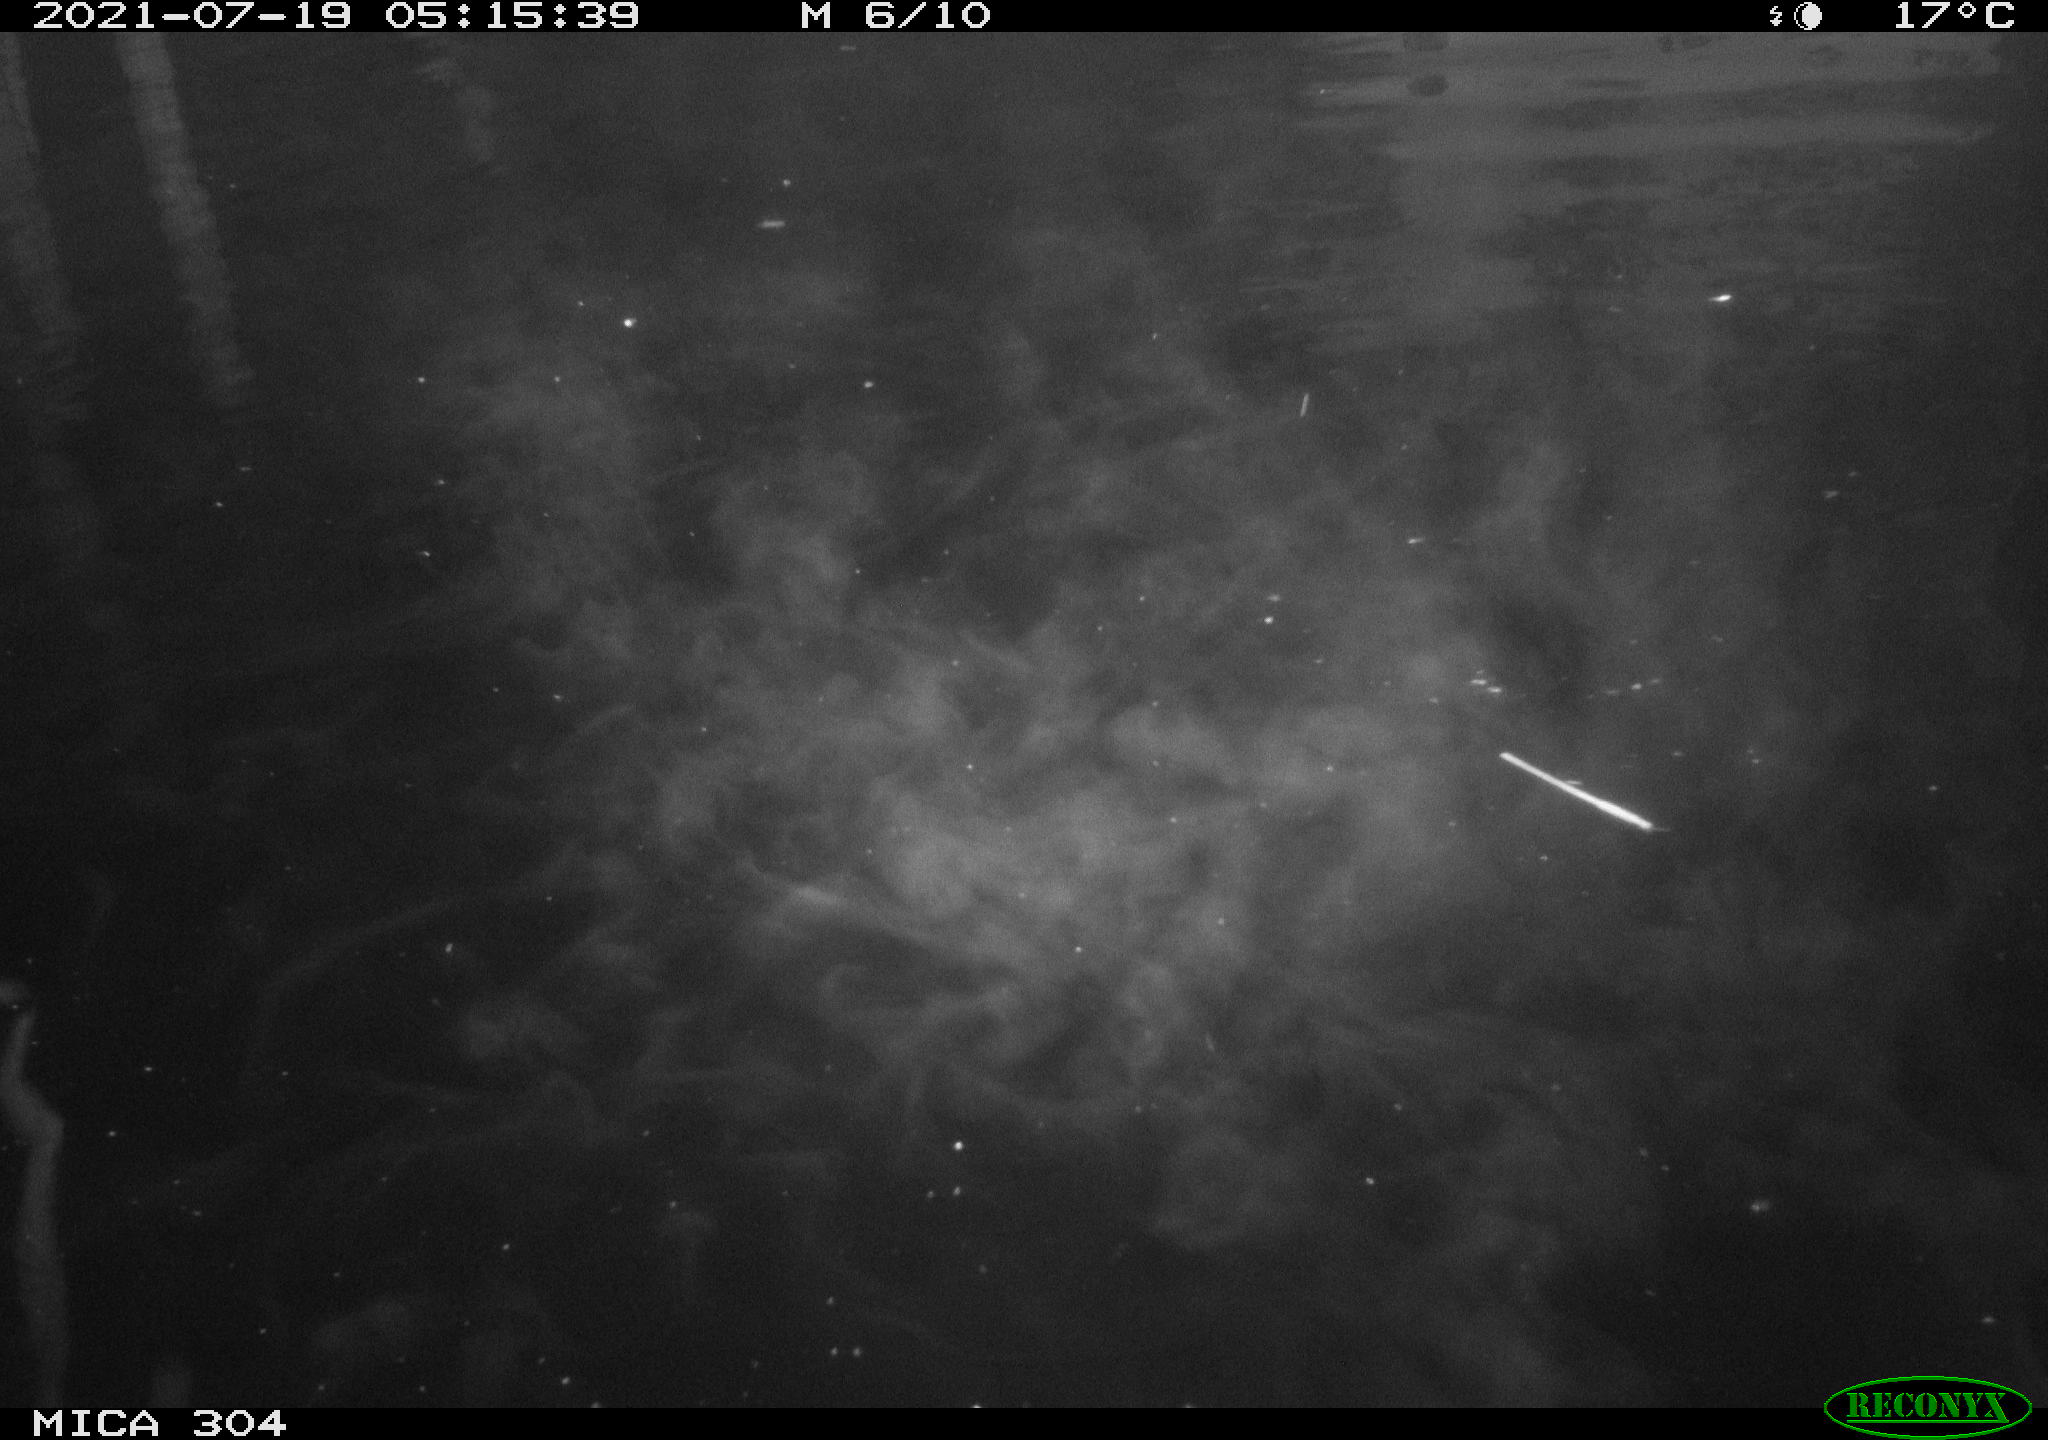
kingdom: Animalia
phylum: Chordata
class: Aves
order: Anseriformes
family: Anatidae
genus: Mareca
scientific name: Mareca strepera
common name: Gadwall
